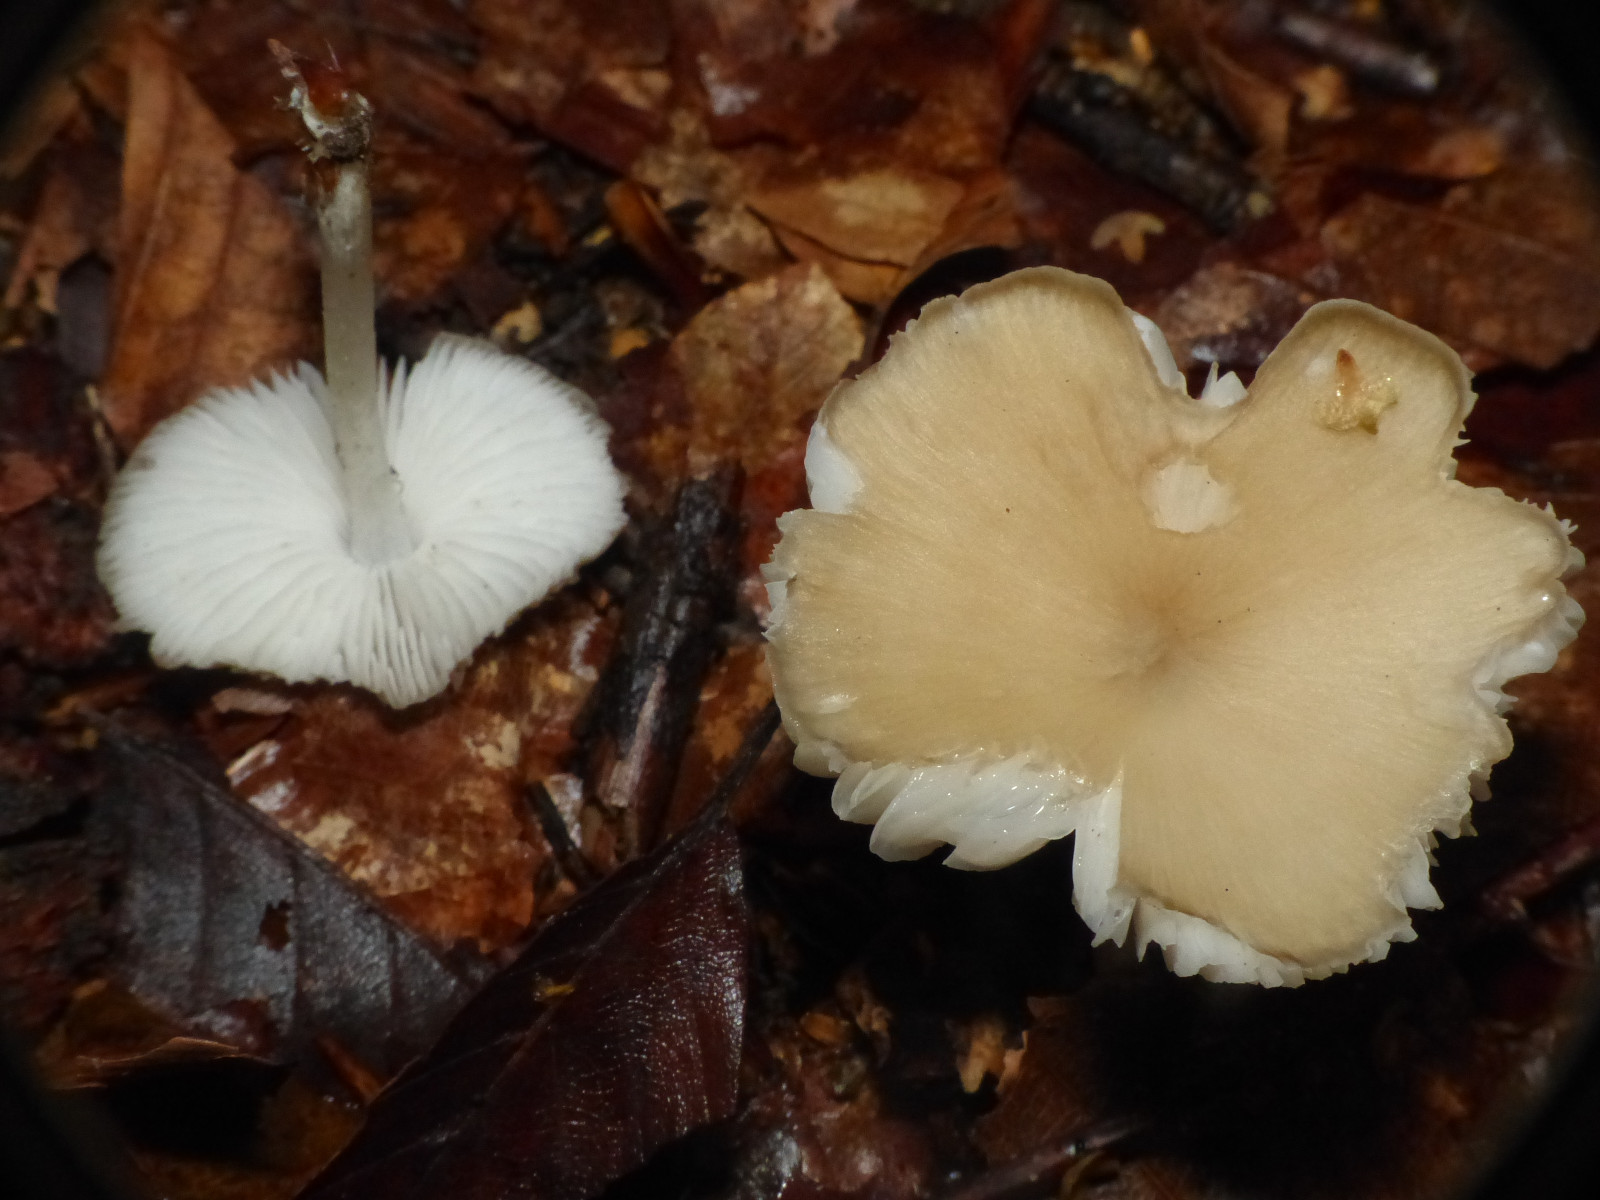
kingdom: Fungi
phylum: Basidiomycota
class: Agaricomycetes
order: Agaricales
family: Porotheleaceae
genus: Hydropodia
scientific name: Hydropodia subalpina
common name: vår-fnugfod
